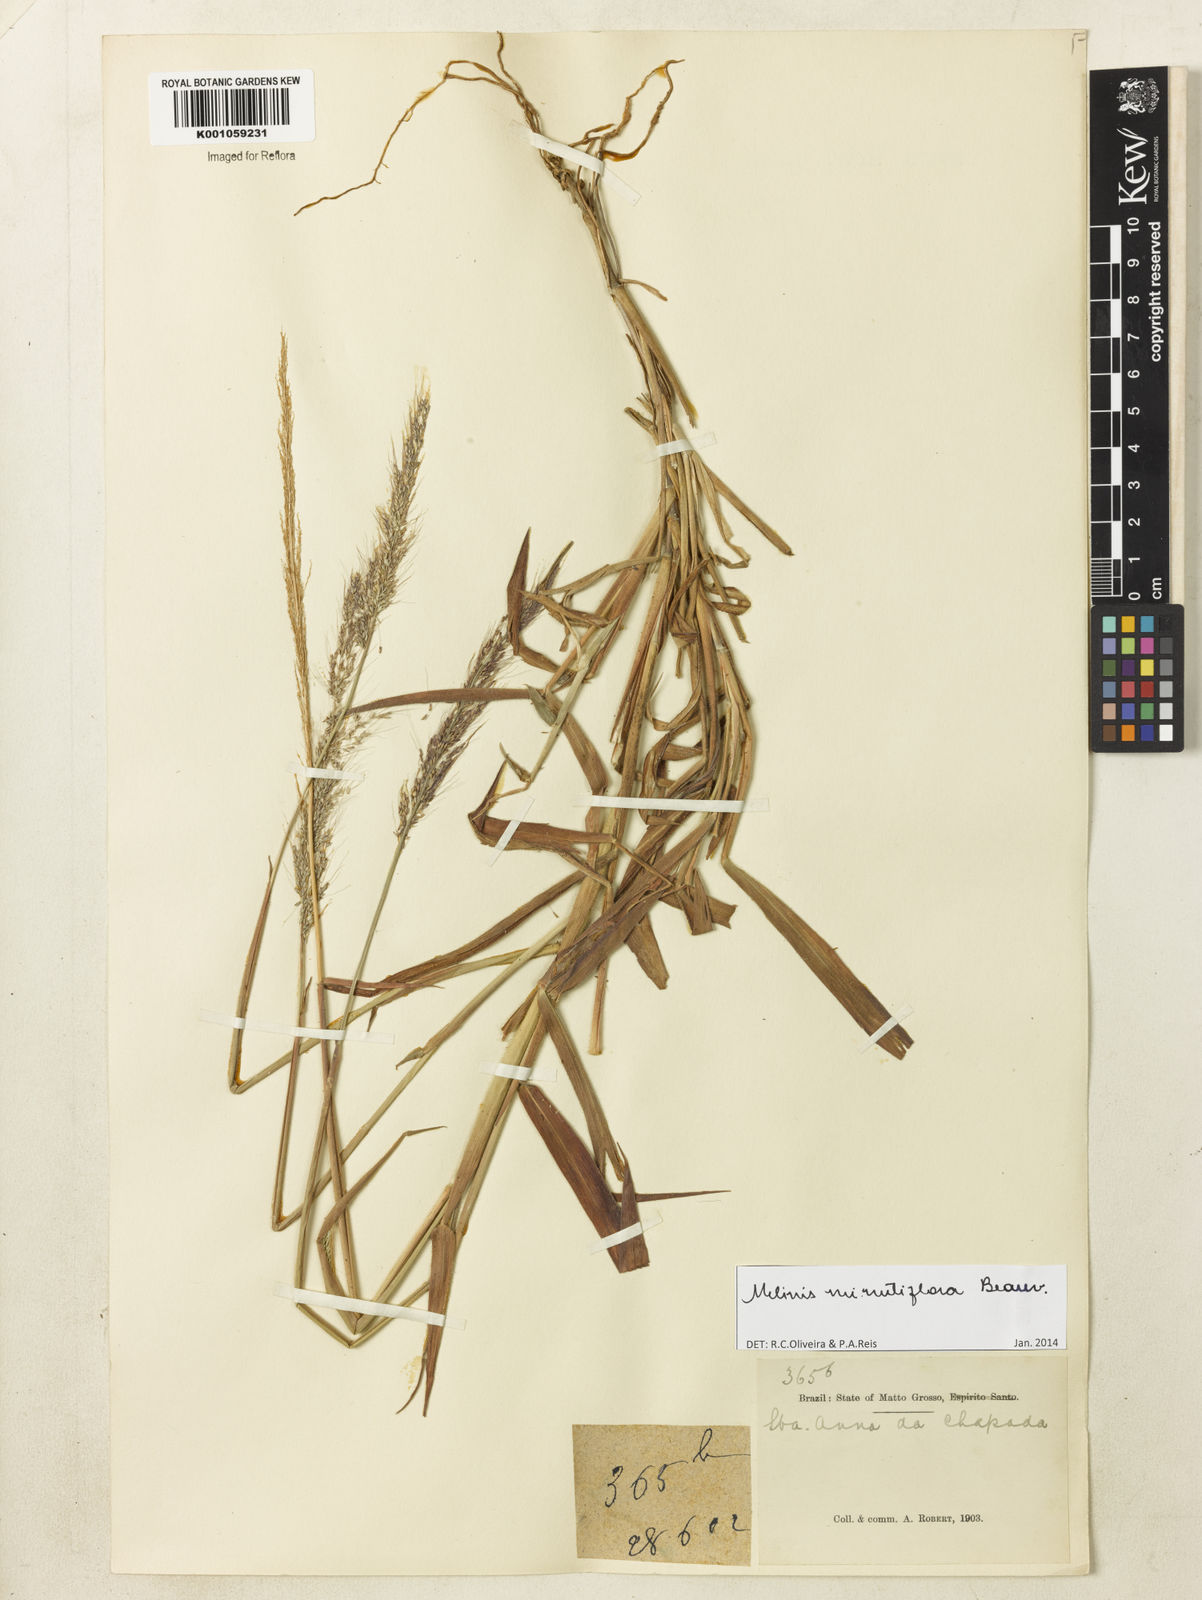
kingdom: Plantae
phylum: Tracheophyta
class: Liliopsida
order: Poales
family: Poaceae
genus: Melinis
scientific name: Melinis minutiflora
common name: Molassesgrass
